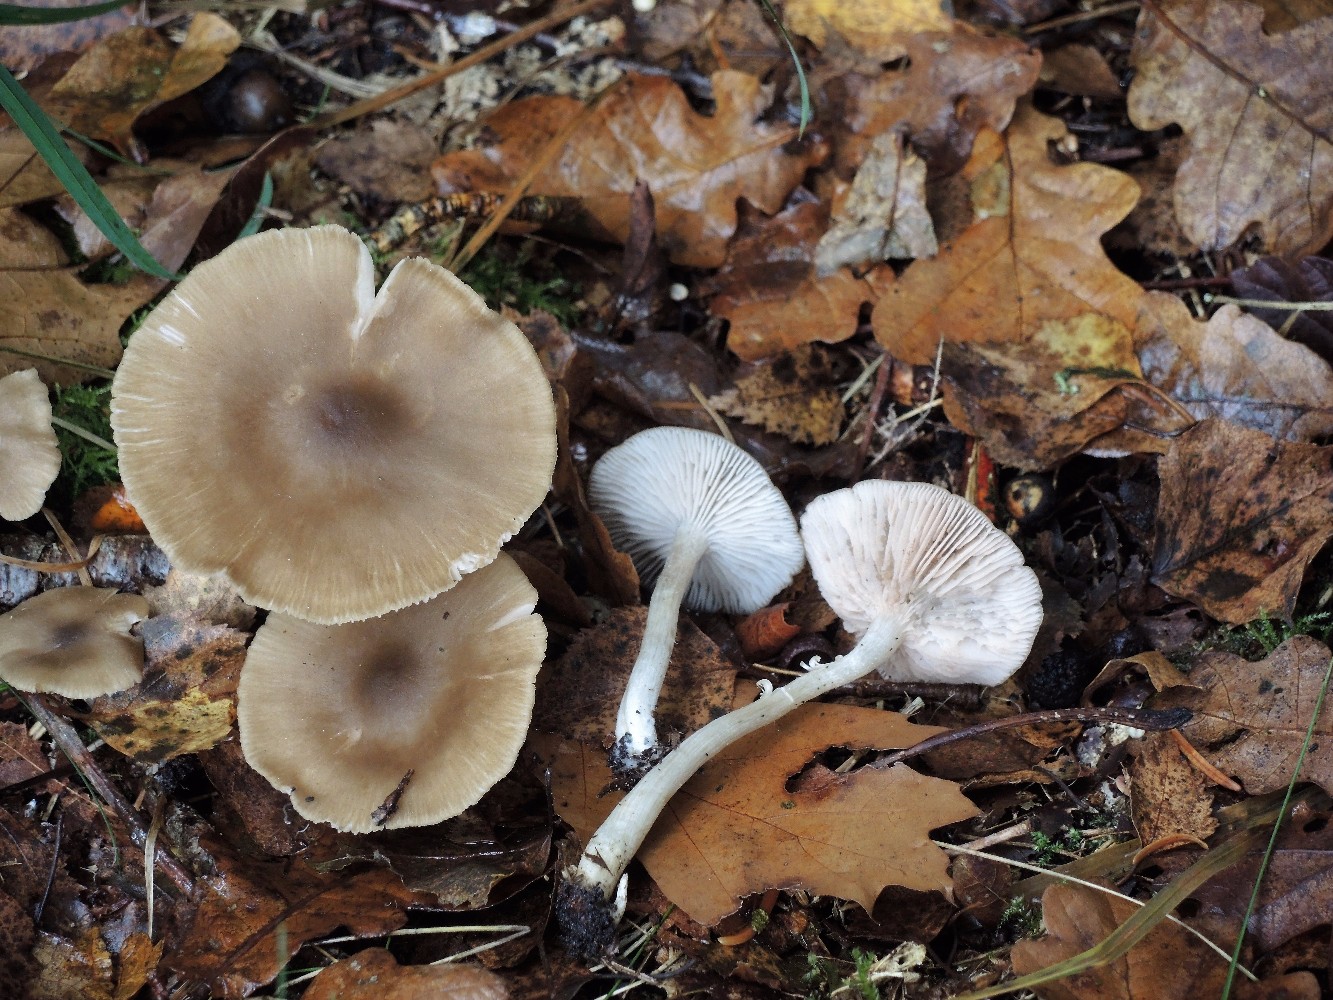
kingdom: Fungi
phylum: Basidiomycota
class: Agaricomycetes
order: Agaricales
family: Entolomataceae
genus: Entoloma
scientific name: Entoloma rhodopolium
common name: skov-rødblad
